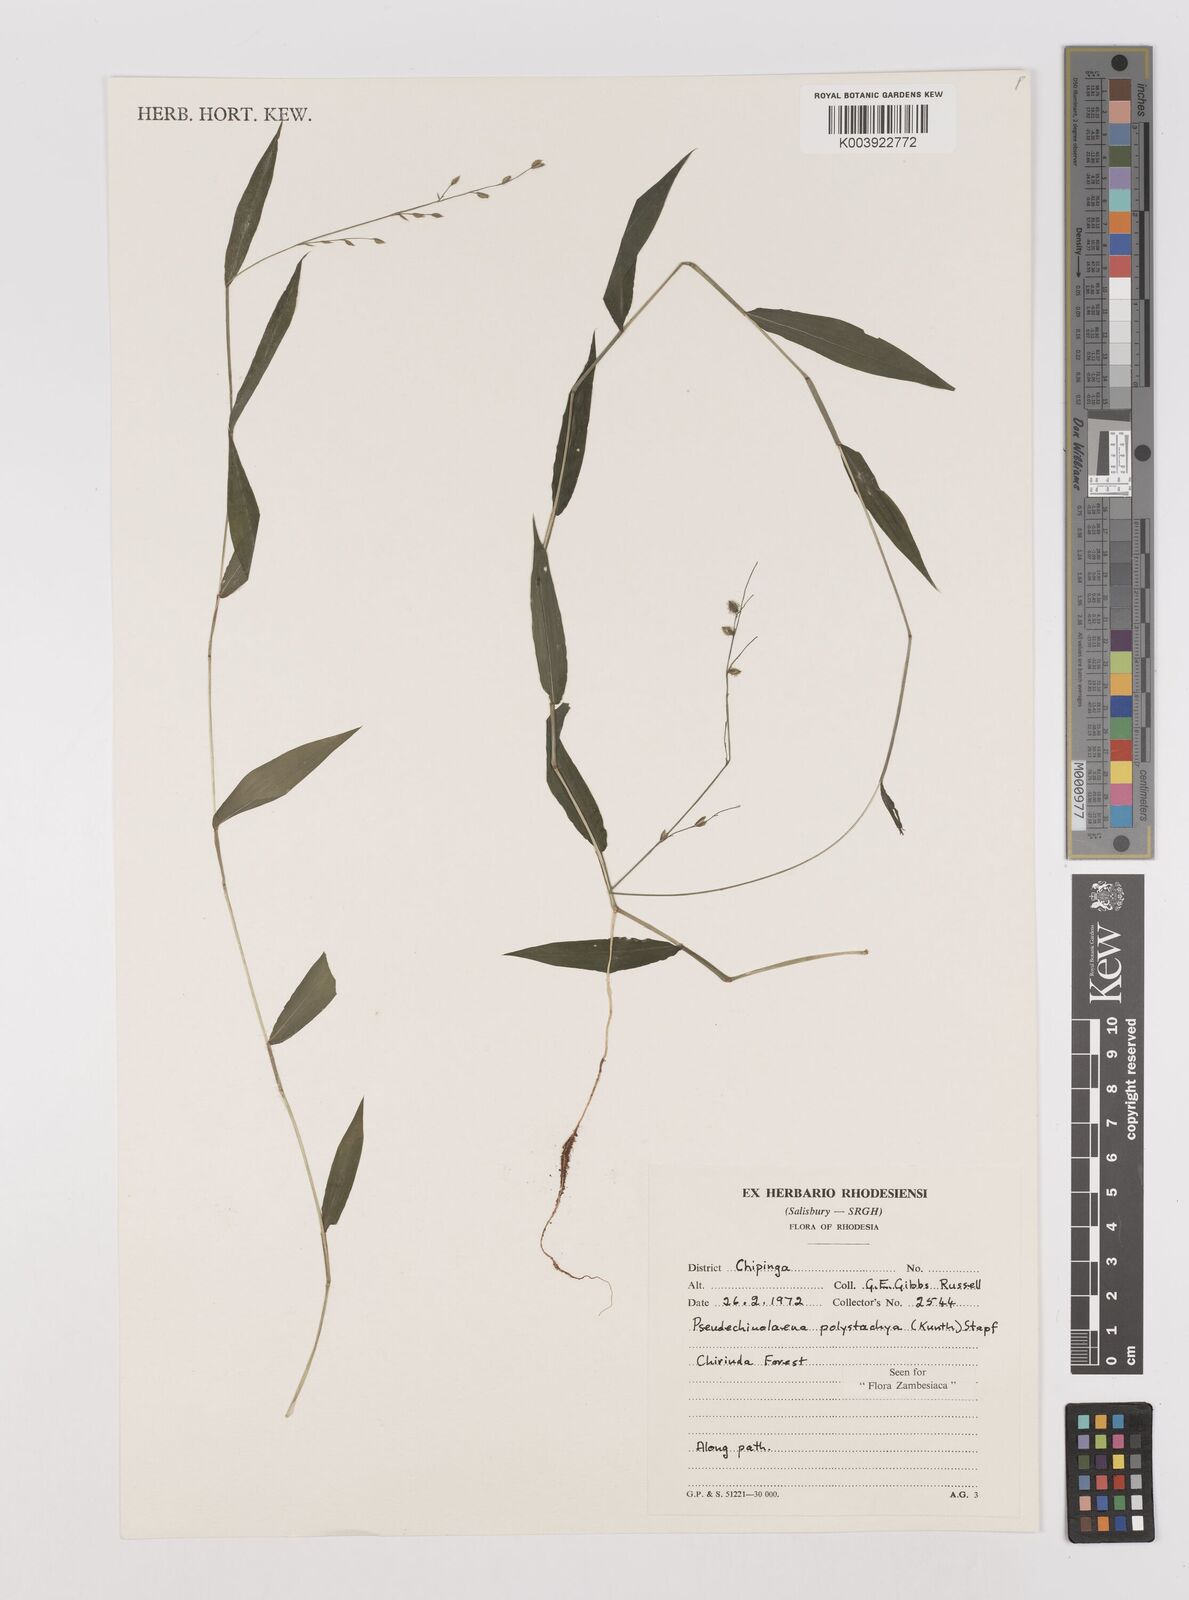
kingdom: Plantae
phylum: Tracheophyta
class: Liliopsida
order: Poales
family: Poaceae
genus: Pseudechinolaena
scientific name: Pseudechinolaena polystachya
